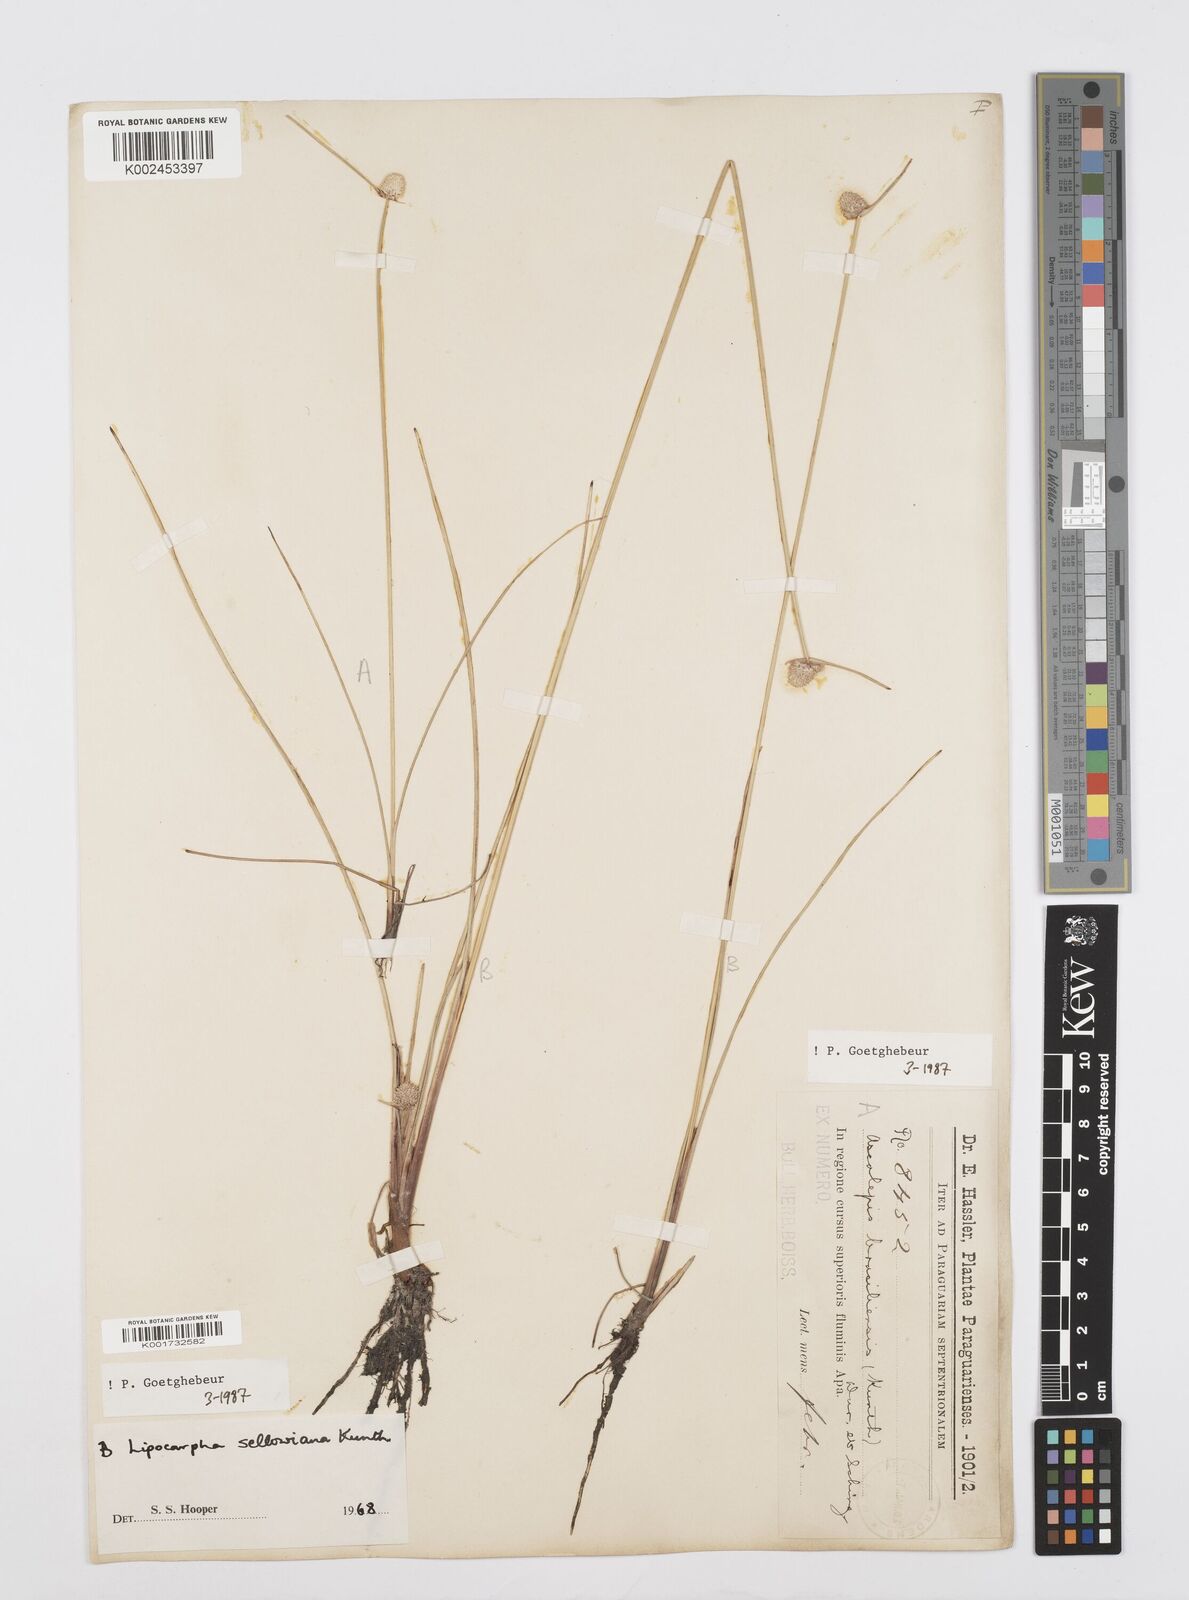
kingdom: Plantae
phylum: Tracheophyta
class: Liliopsida
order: Poales
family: Cyperaceae
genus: Cyperus
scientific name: Cyperus lanceolatus
